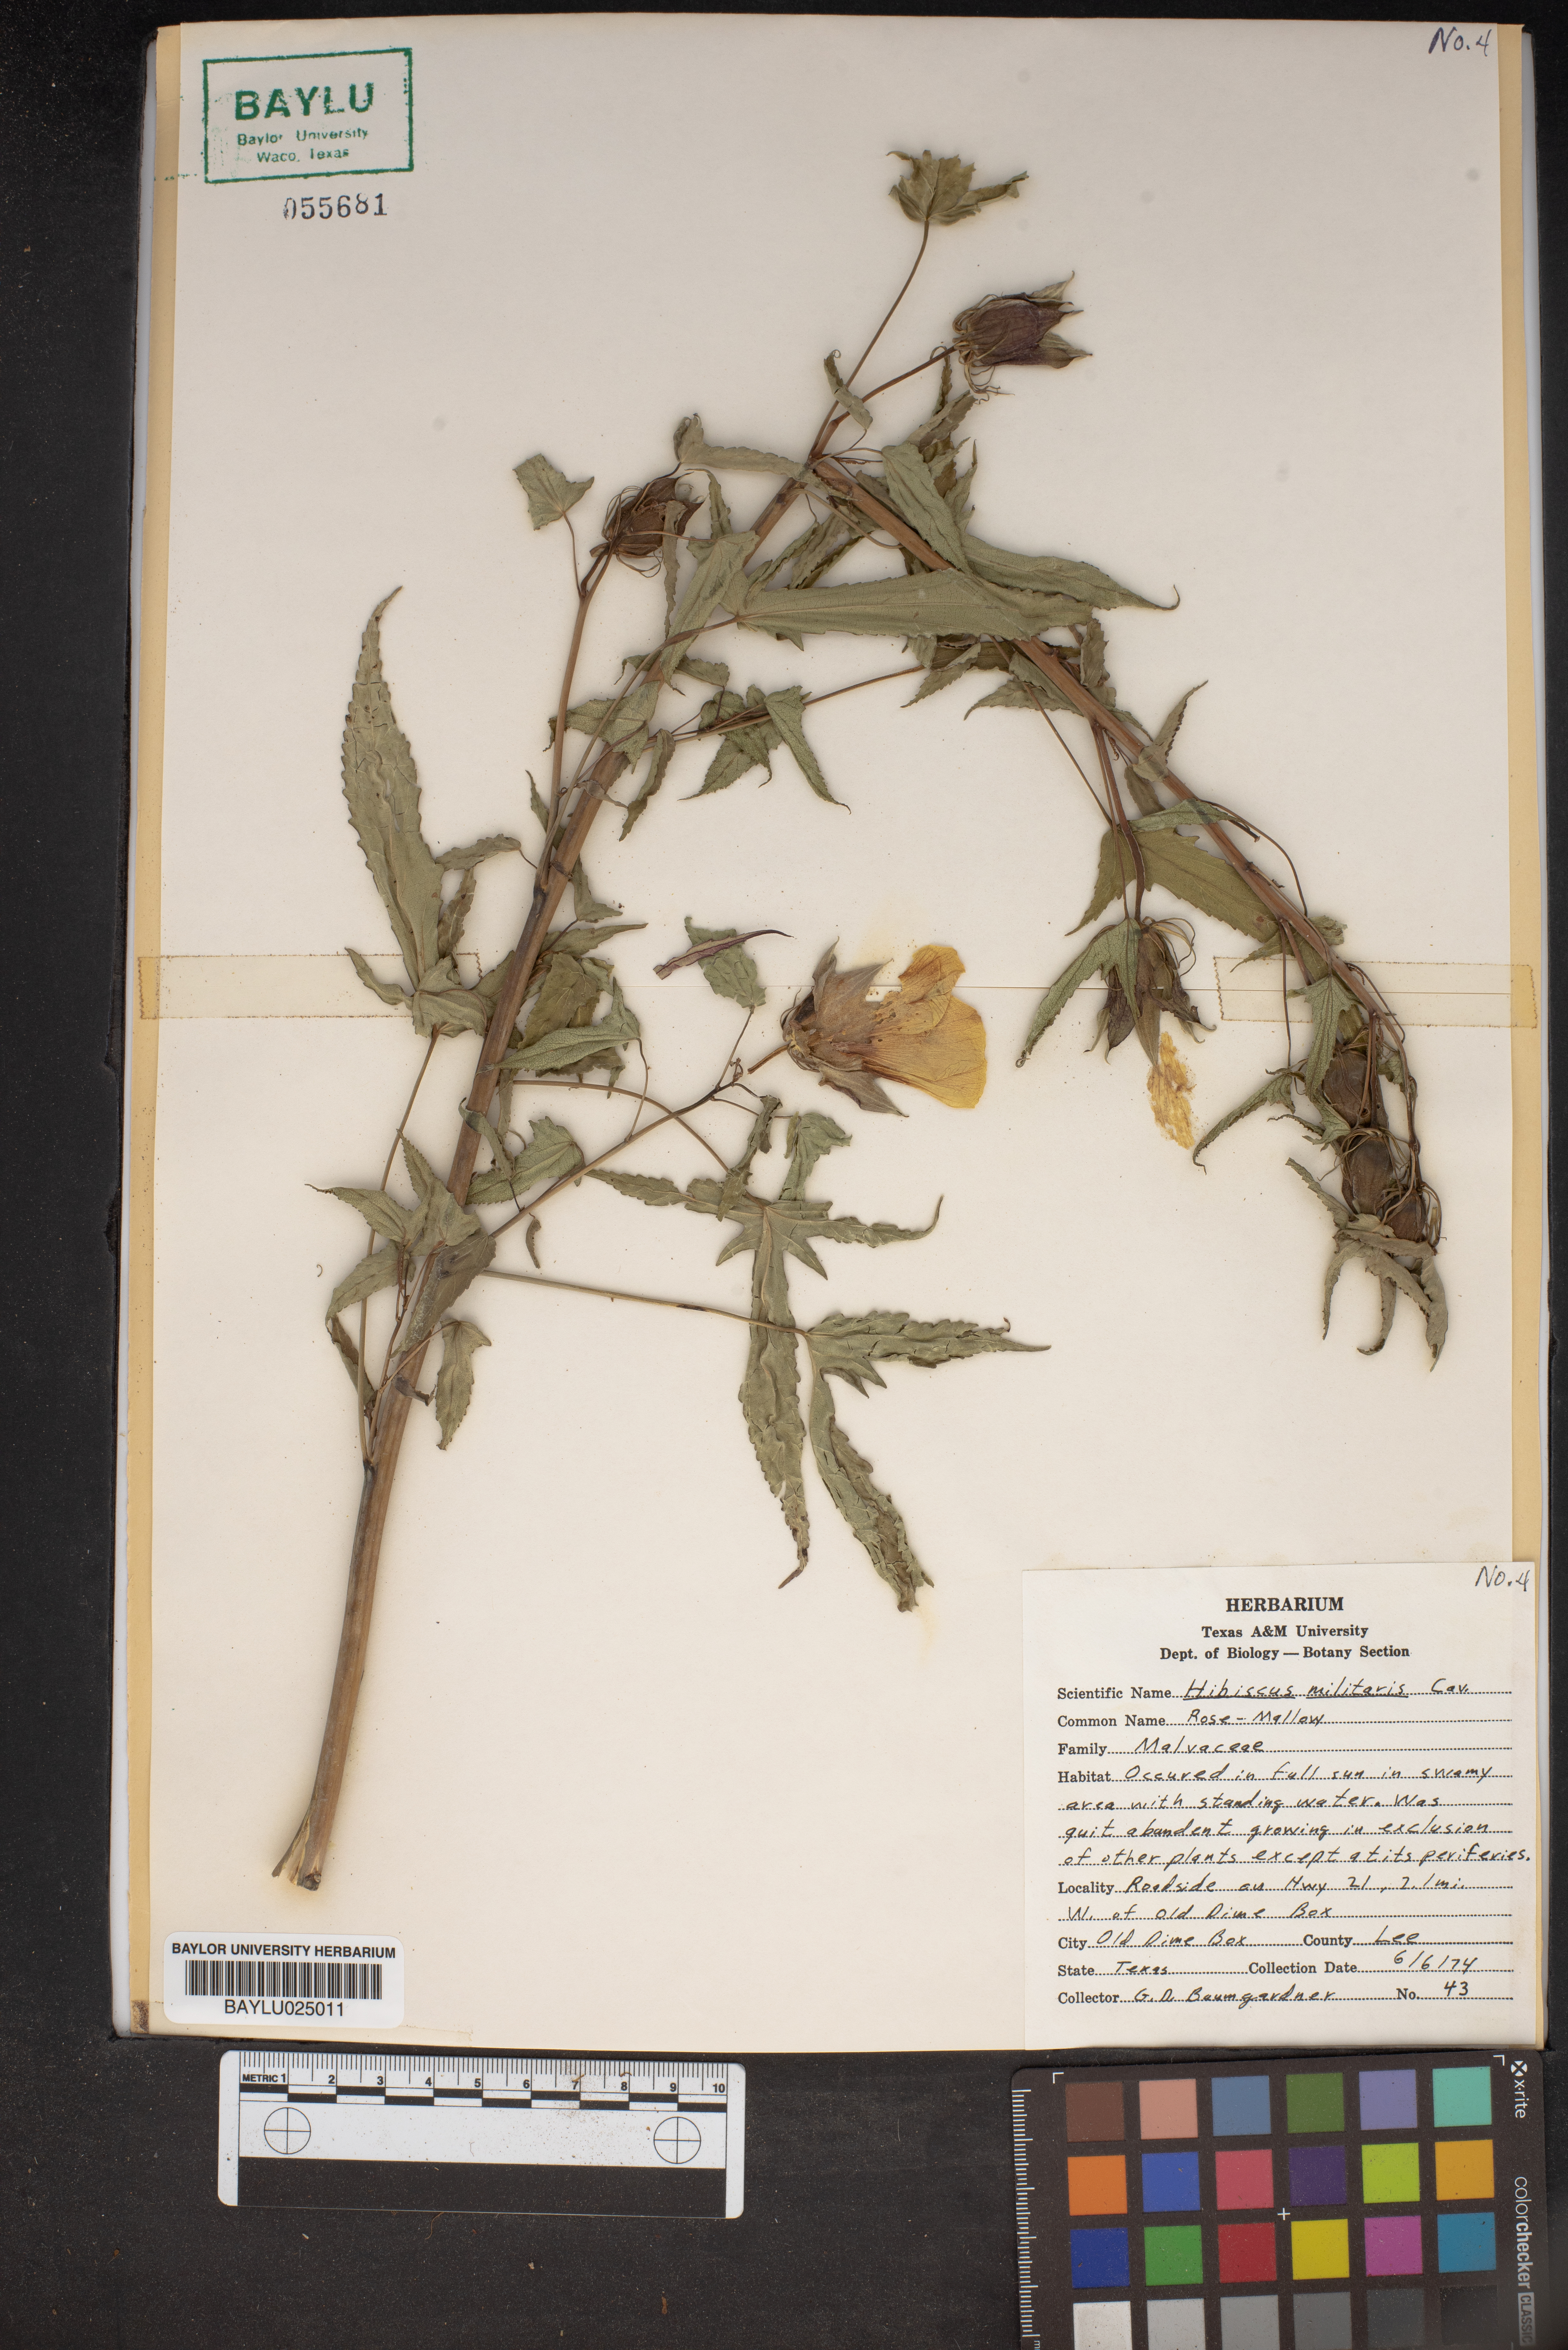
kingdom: Plantae
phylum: Tracheophyta
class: Magnoliopsida
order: Malvales
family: Malvaceae
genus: Hibiscus
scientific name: Hibiscus laevis
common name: Scarlet rose-mallow
